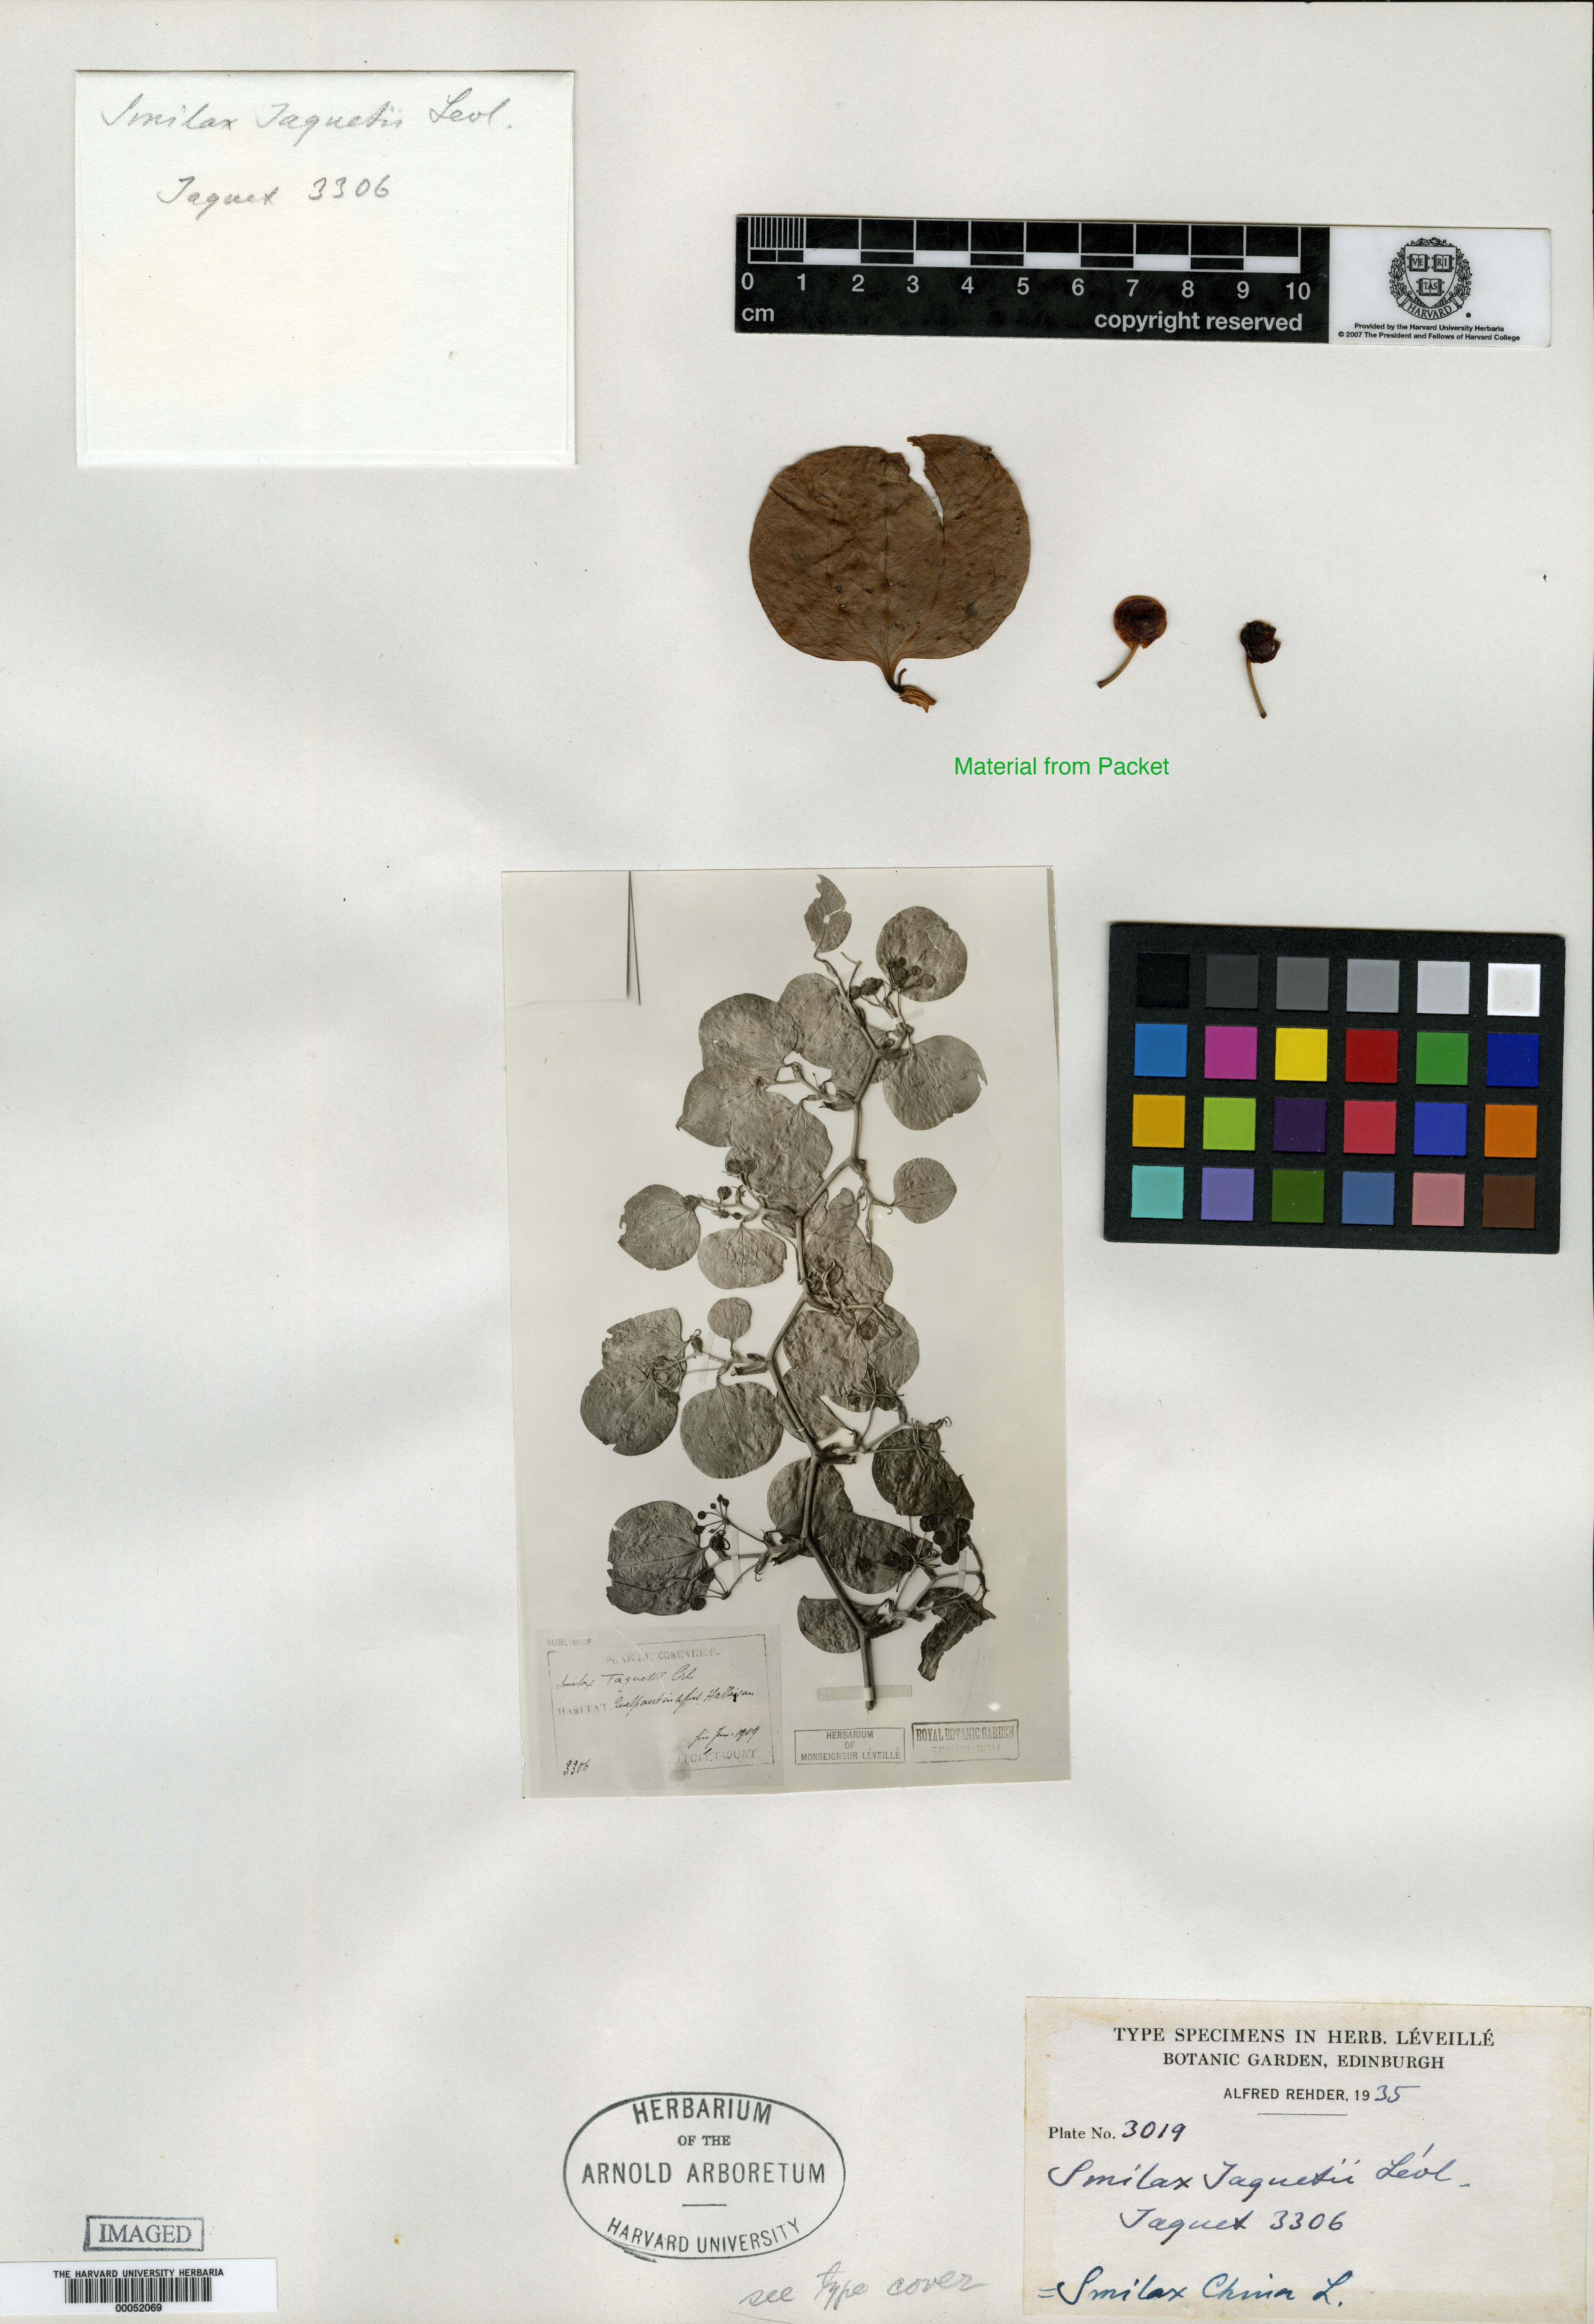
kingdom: Plantae
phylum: Tracheophyta
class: Liliopsida
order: Liliales
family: Smilacaceae
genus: Smilax
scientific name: Smilax china
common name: Chinaroot
